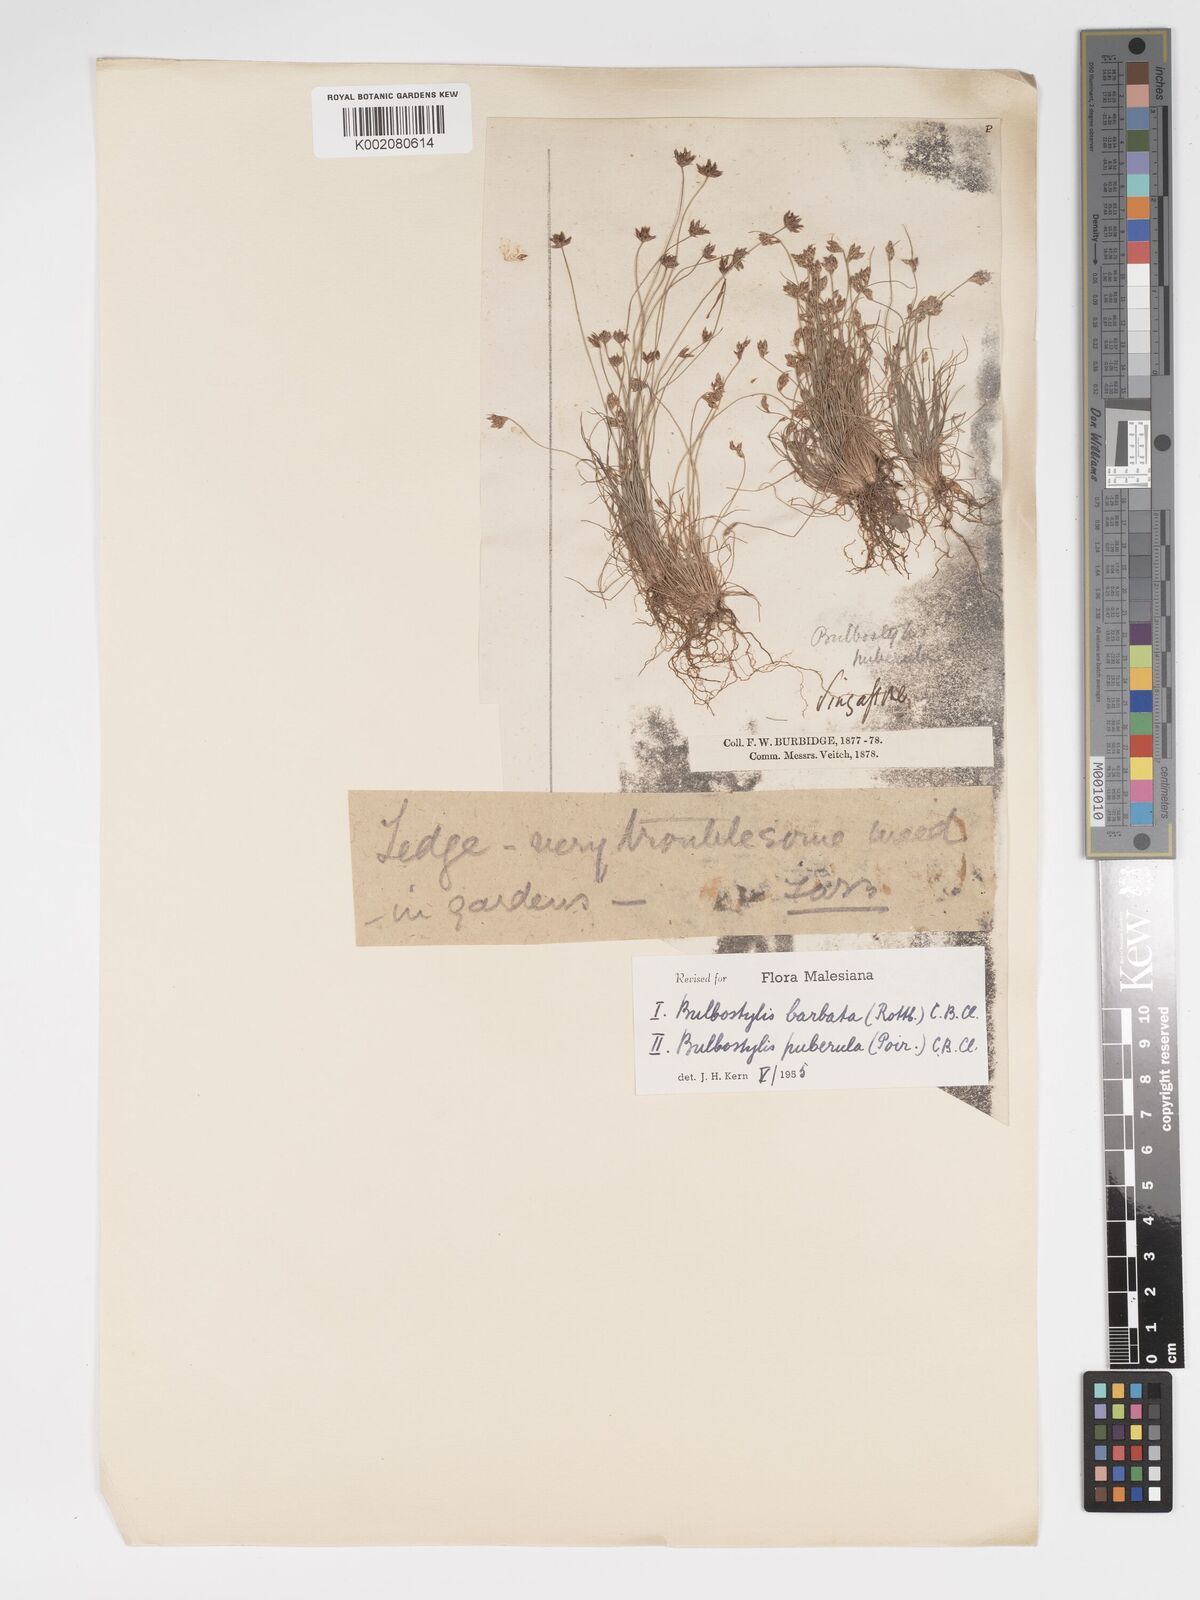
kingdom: Plantae
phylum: Tracheophyta
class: Liliopsida
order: Poales
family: Cyperaceae
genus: Bulbostylis
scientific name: Bulbostylis barbata
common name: Watergrass
